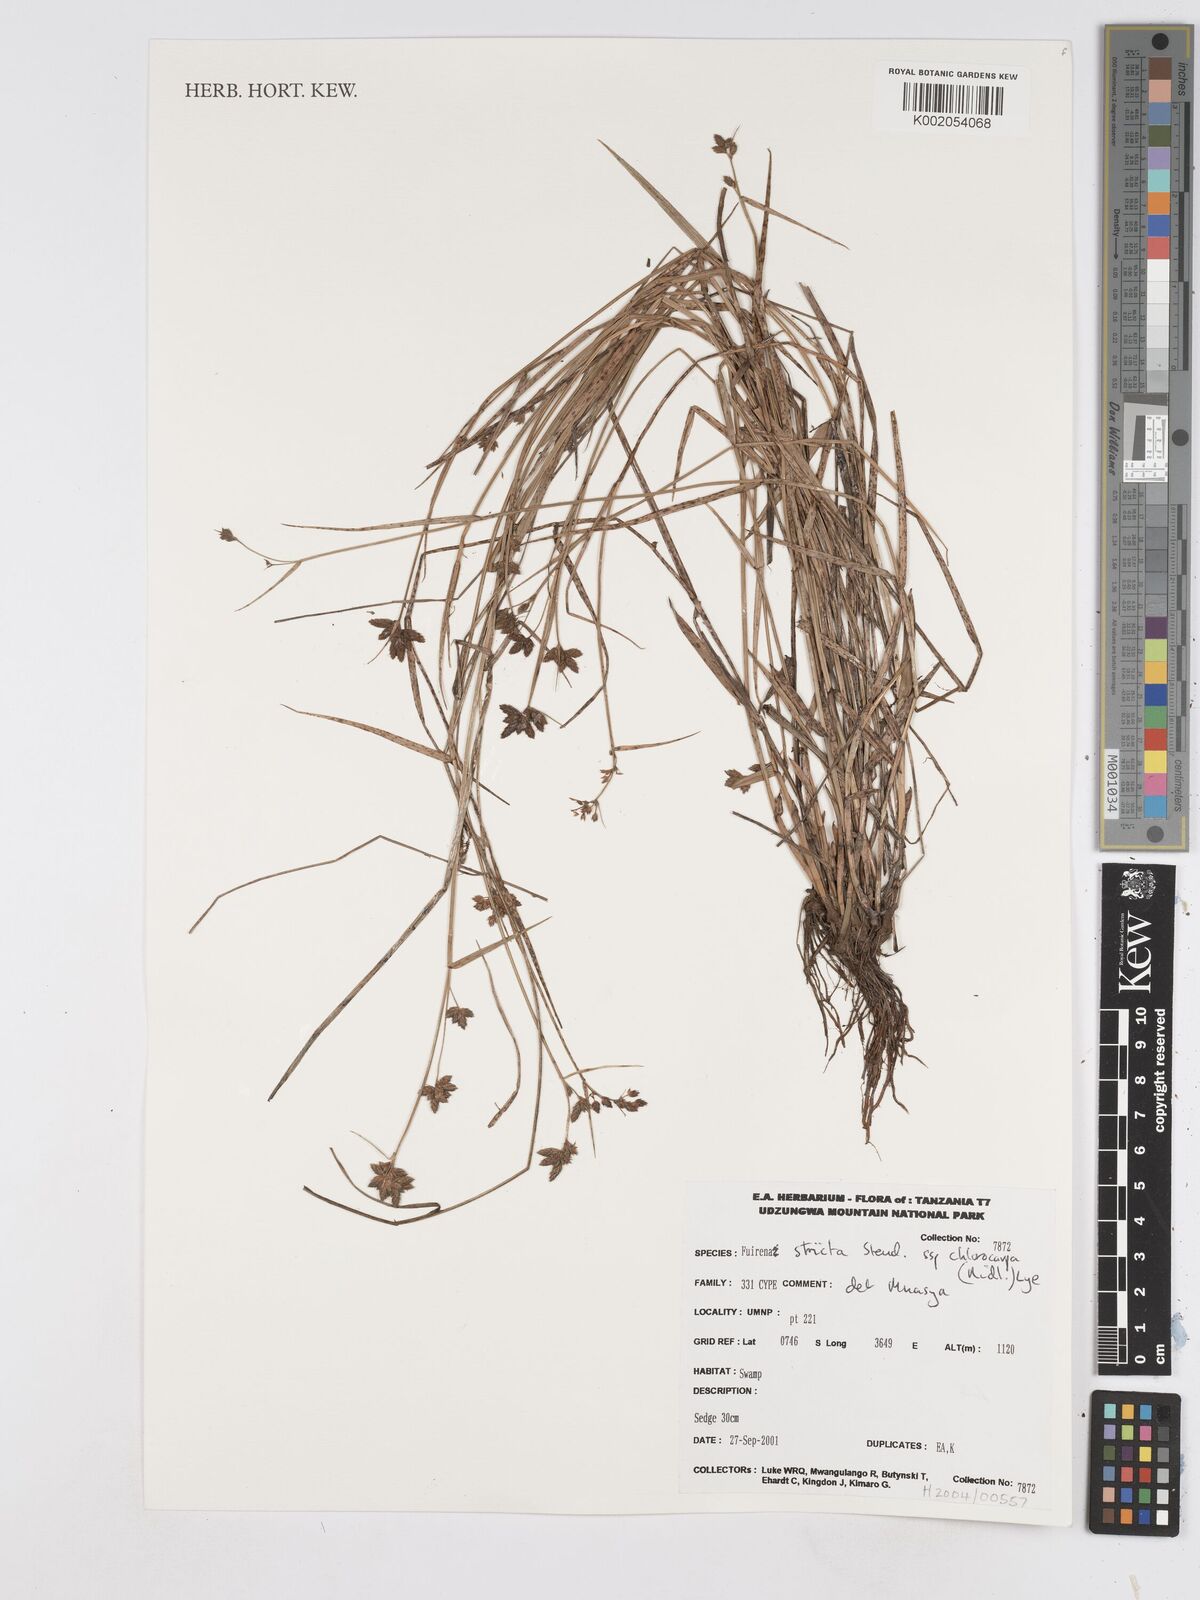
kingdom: Plantae
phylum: Tracheophyta
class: Liliopsida
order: Poales
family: Cyperaceae
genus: Fuirena
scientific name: Fuirena stricta
